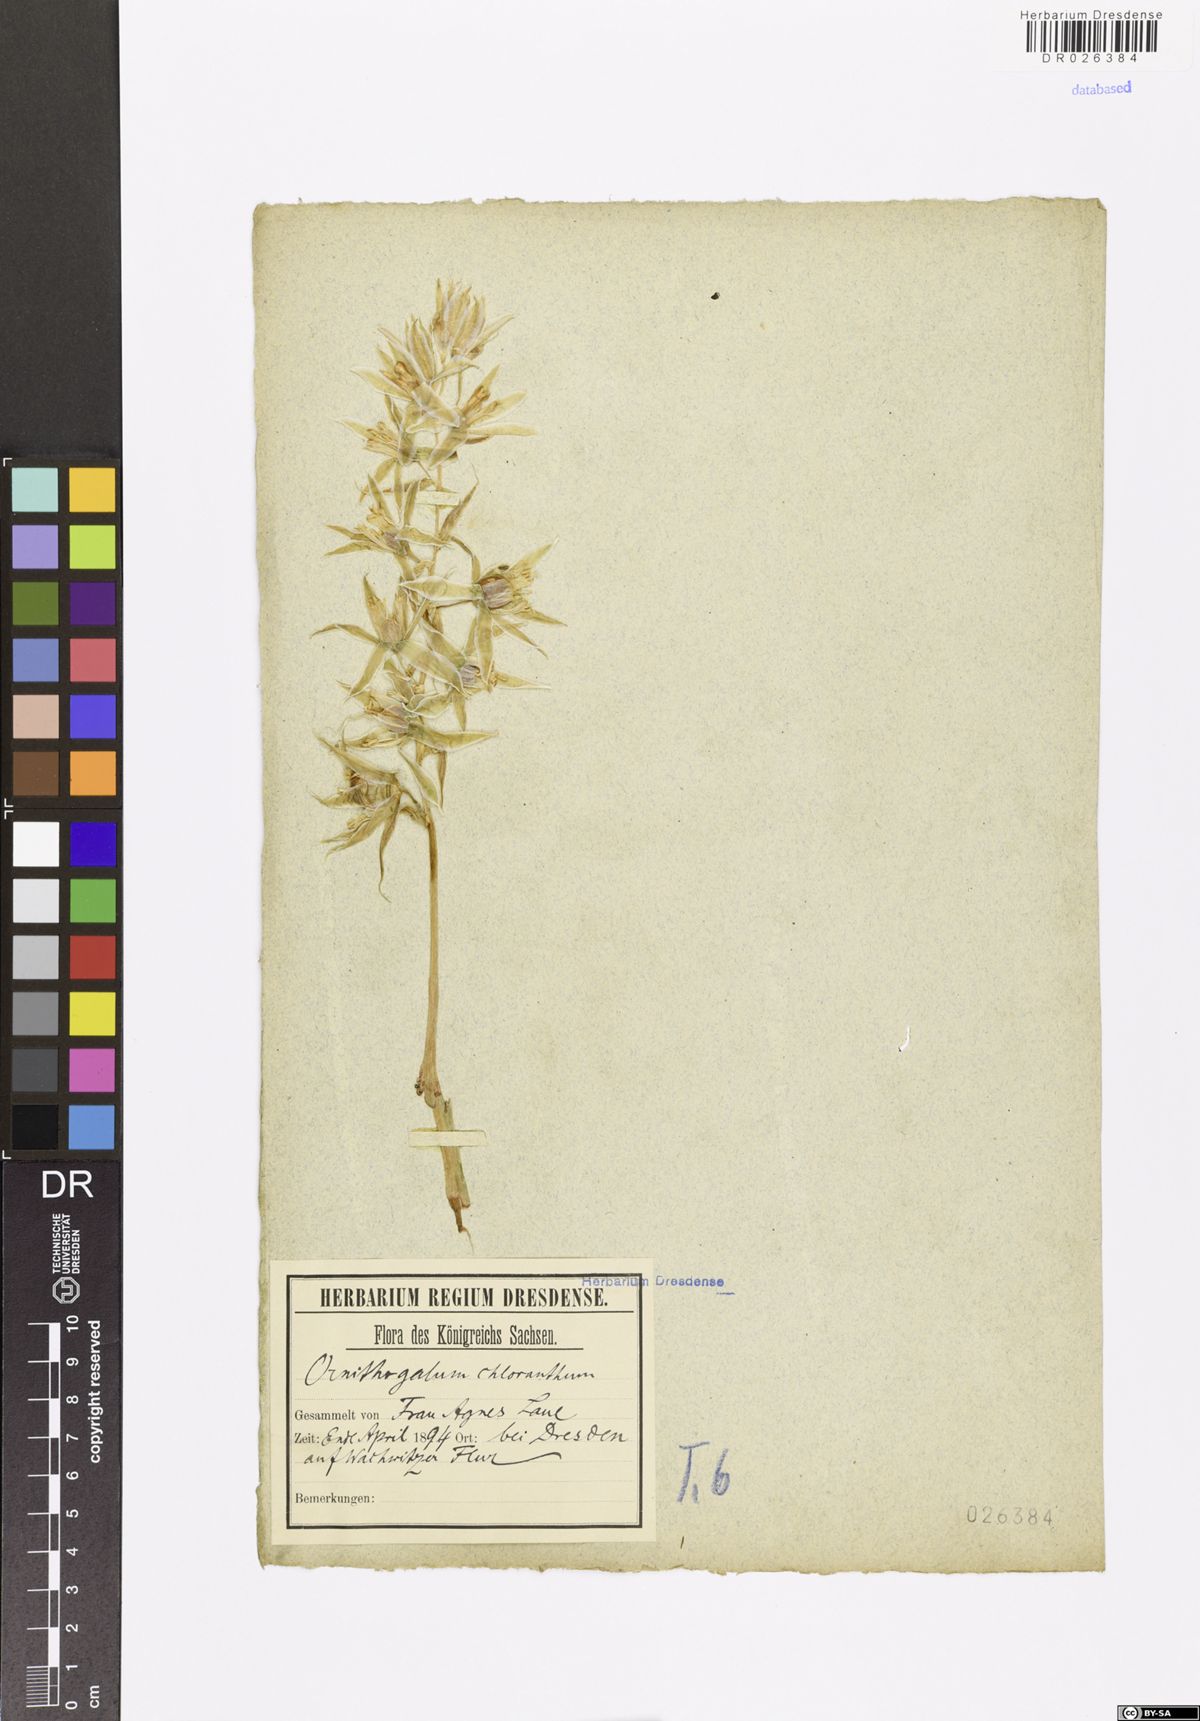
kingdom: Plantae
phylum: Tracheophyta
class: Liliopsida
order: Asparagales
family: Asparagaceae
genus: Ornithogalum
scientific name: Ornithogalum nutans
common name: Drooping star-of-bethlehem
